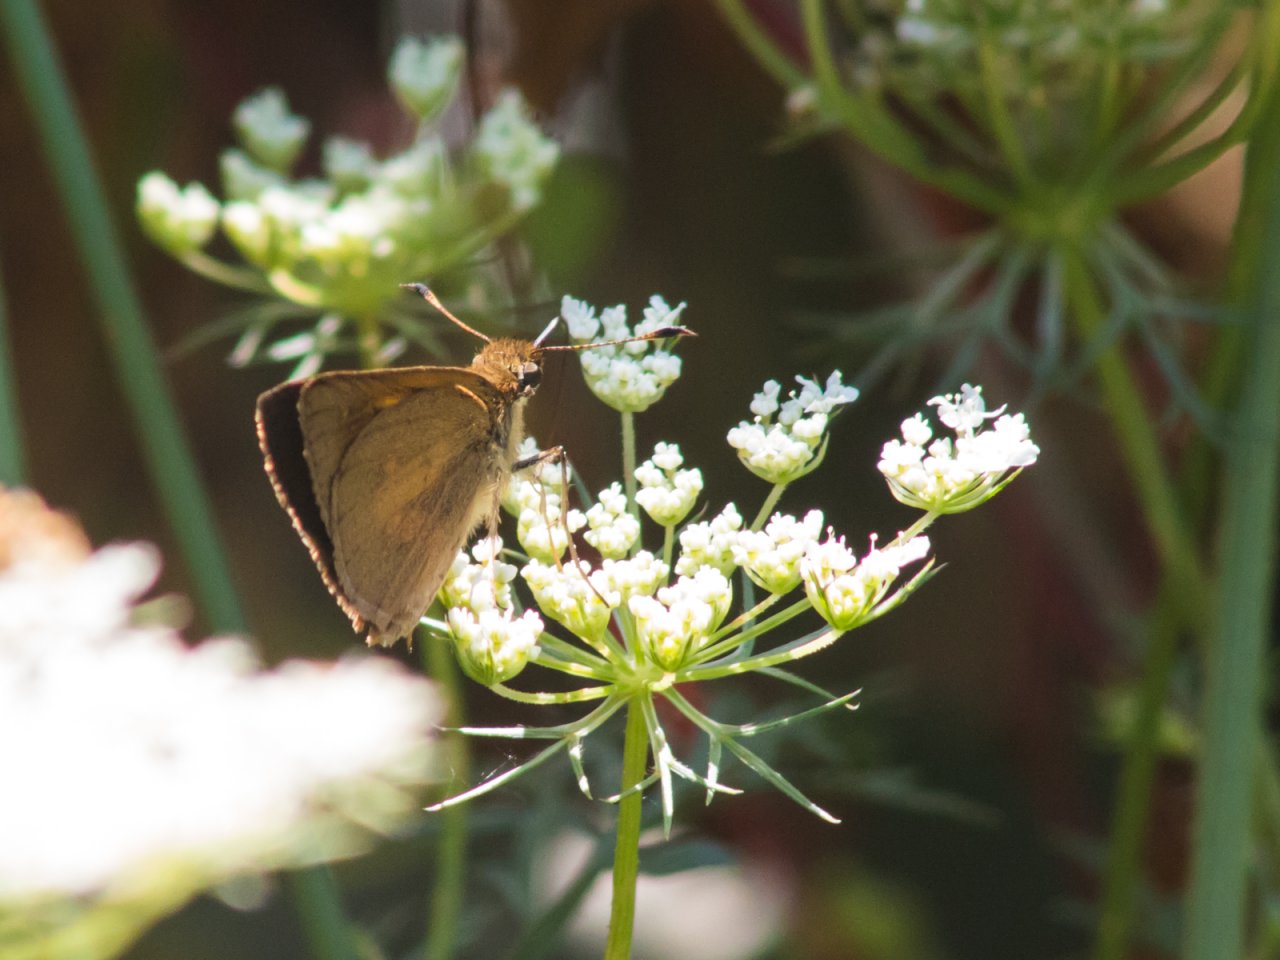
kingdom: Animalia
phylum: Arthropoda
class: Insecta
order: Lepidoptera
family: Hesperiidae
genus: Poanes
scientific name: Poanes viator
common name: Broad-winged Skipper
